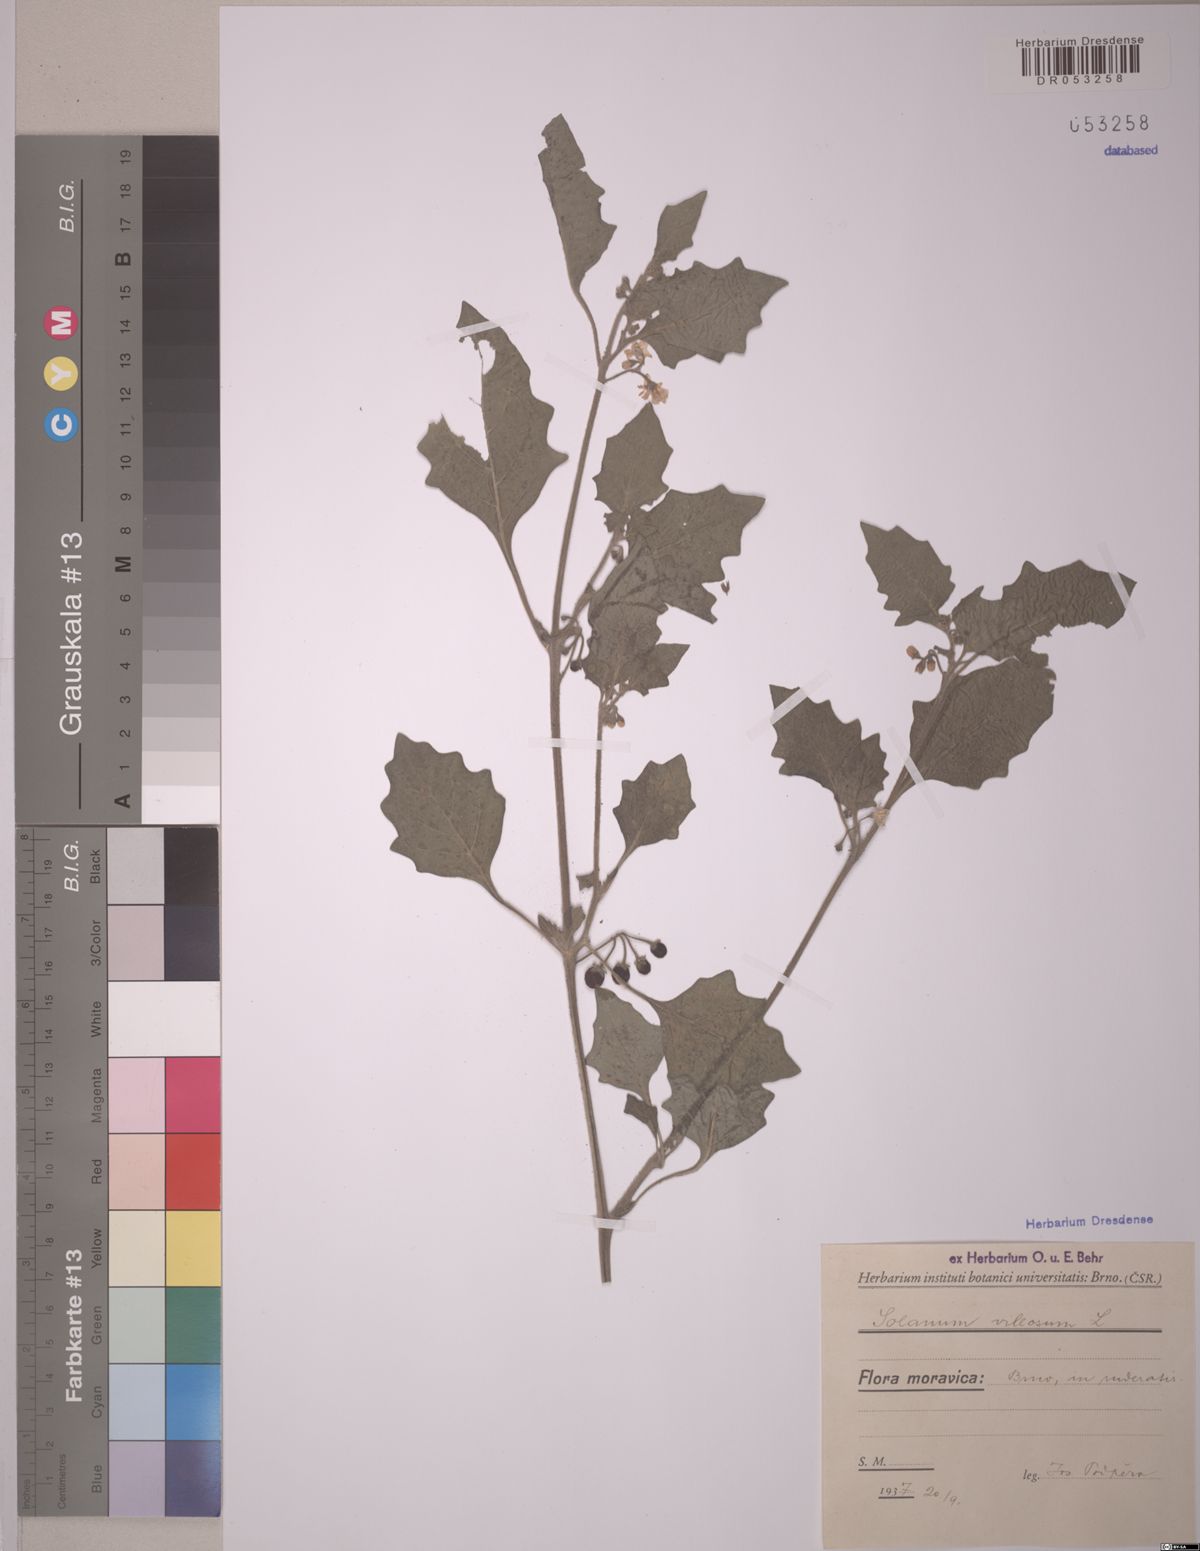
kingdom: Plantae
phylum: Tracheophyta
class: Magnoliopsida
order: Solanales
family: Solanaceae
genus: Solanum
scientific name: Solanum villosum
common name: Red nightshade
